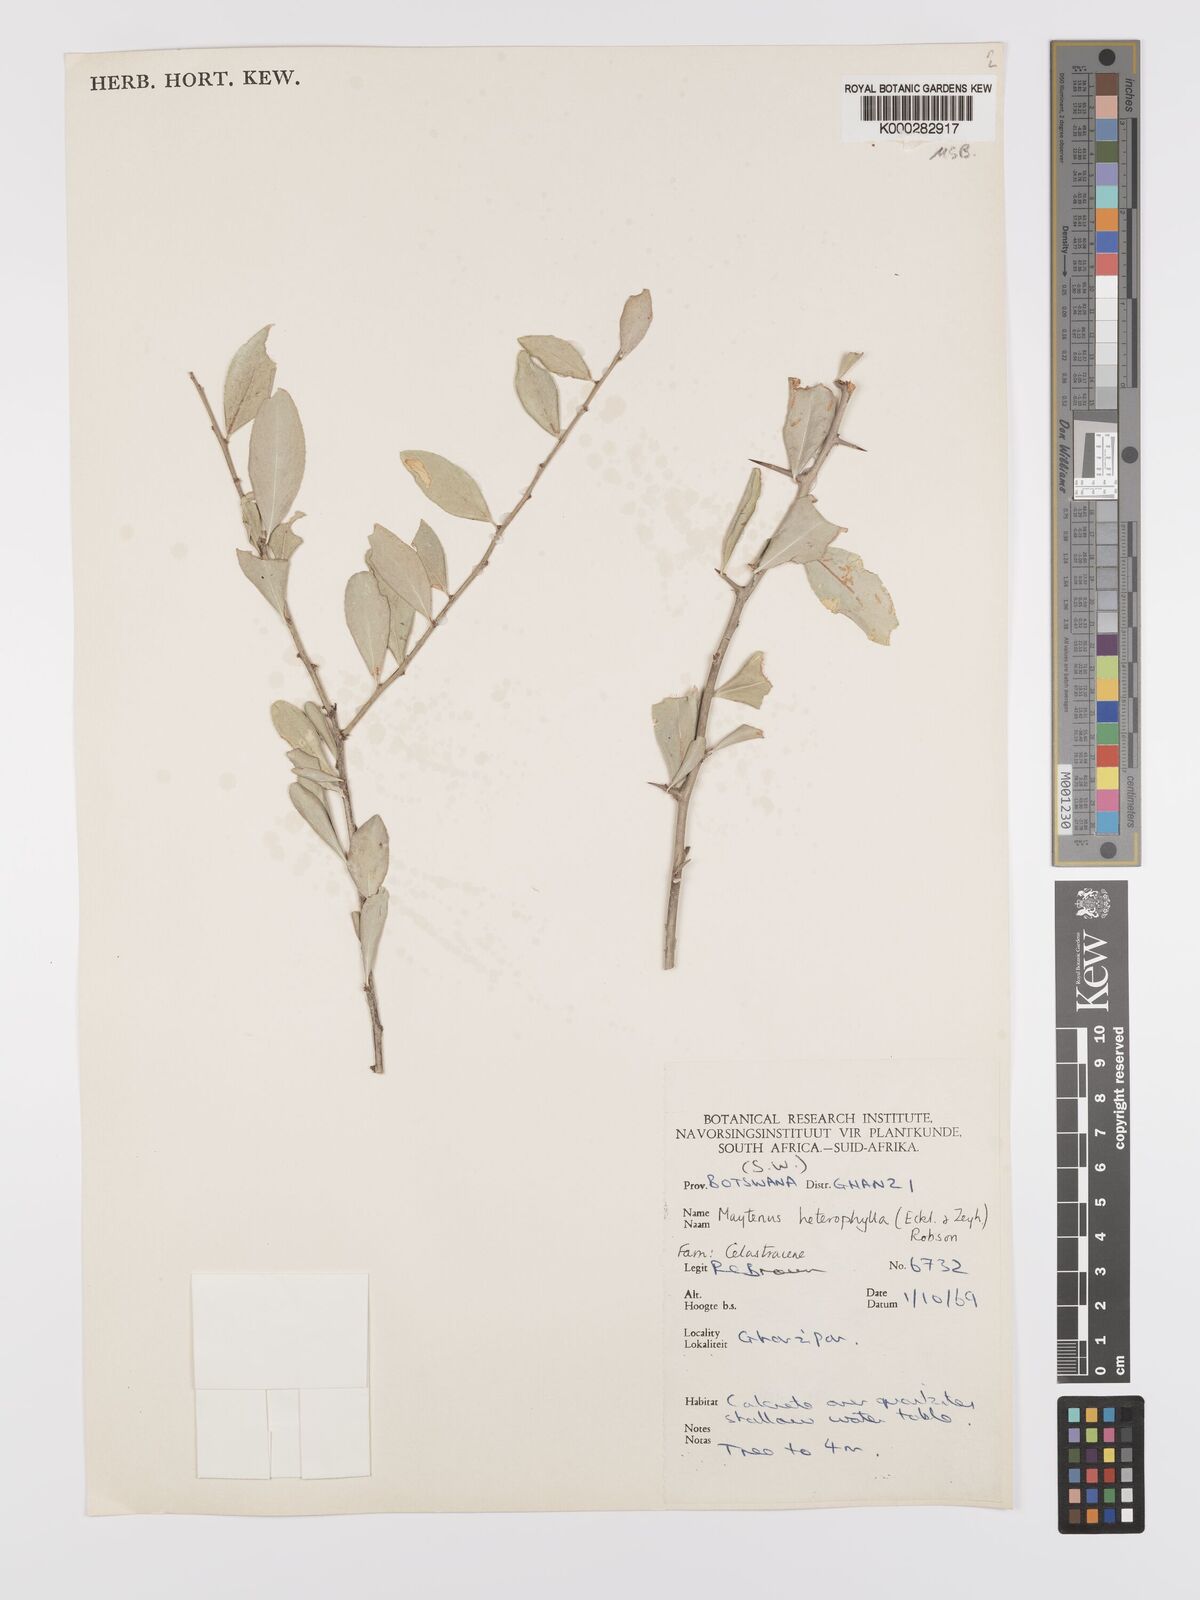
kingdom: Plantae
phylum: Tracheophyta
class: Magnoliopsida
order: Celastrales
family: Celastraceae
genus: Gymnosporia
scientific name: Gymnosporia heterophylla
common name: Angle-stem spikethorn
